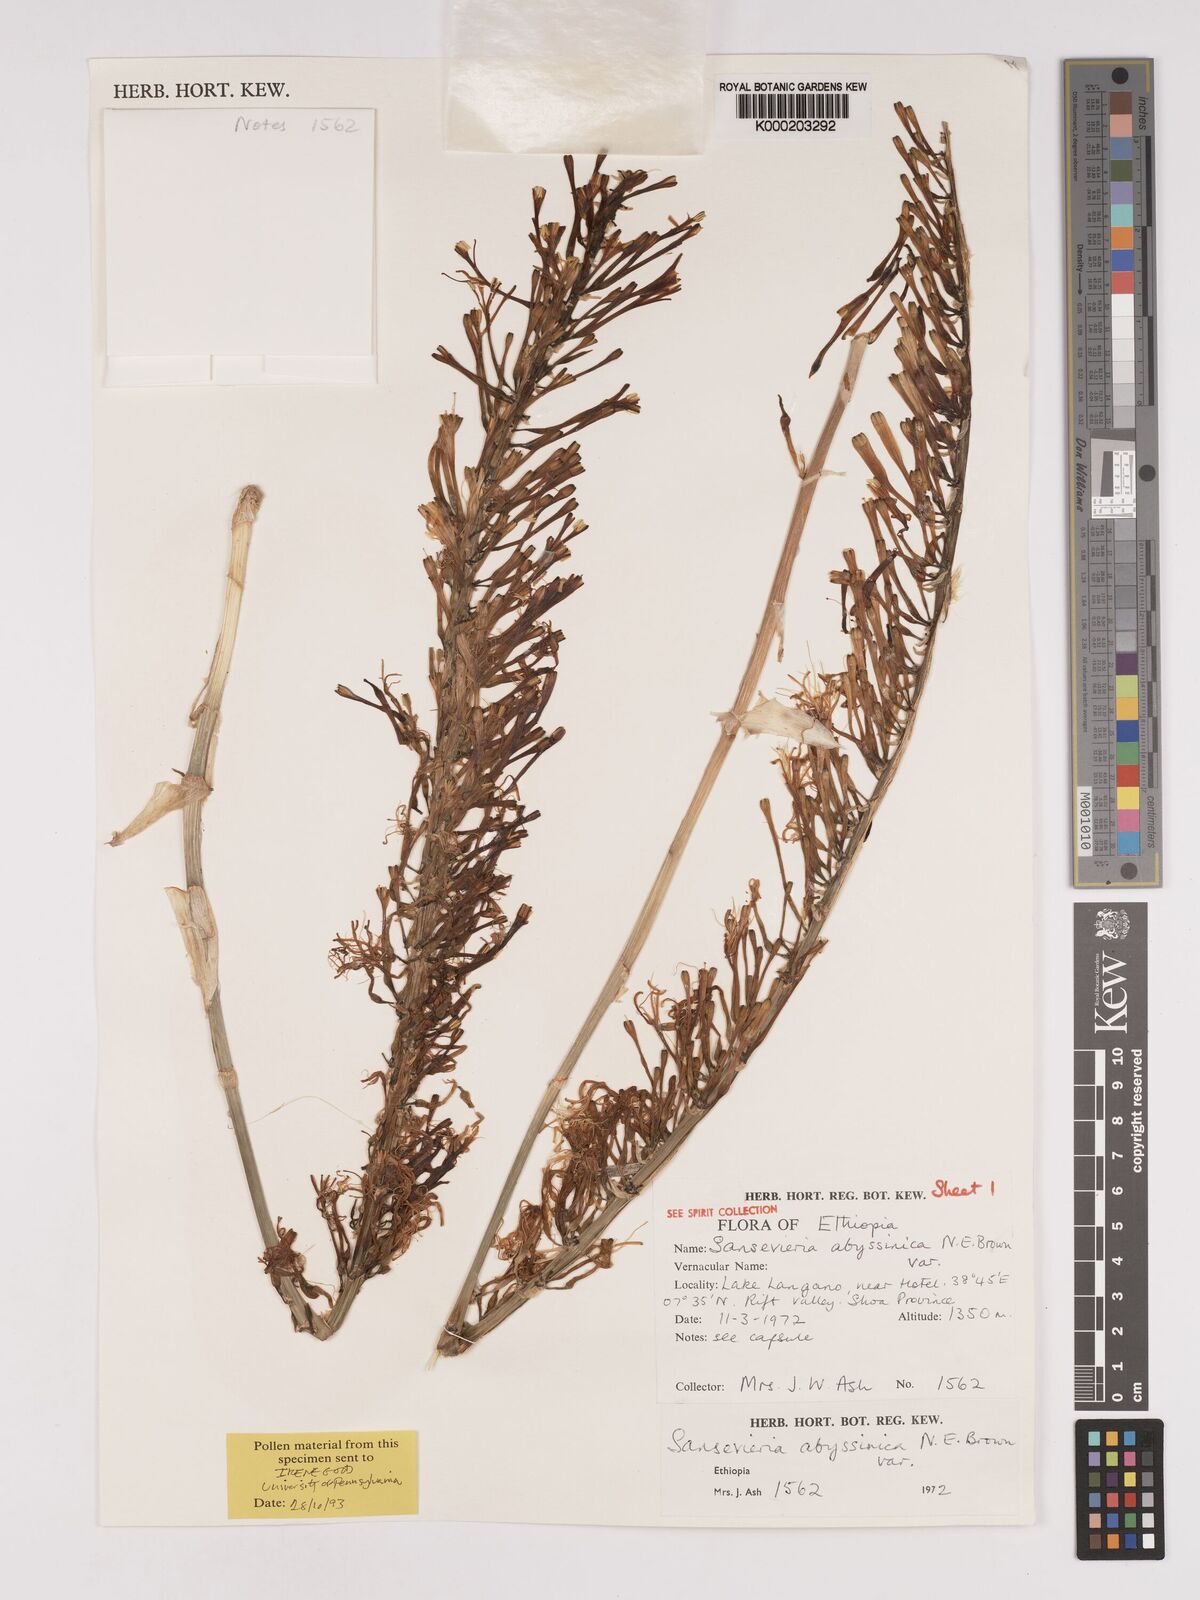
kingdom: Plantae
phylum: Tracheophyta
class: Liliopsida
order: Asparagales
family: Asparagaceae
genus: Dracaena
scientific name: Dracaena forskaliana
